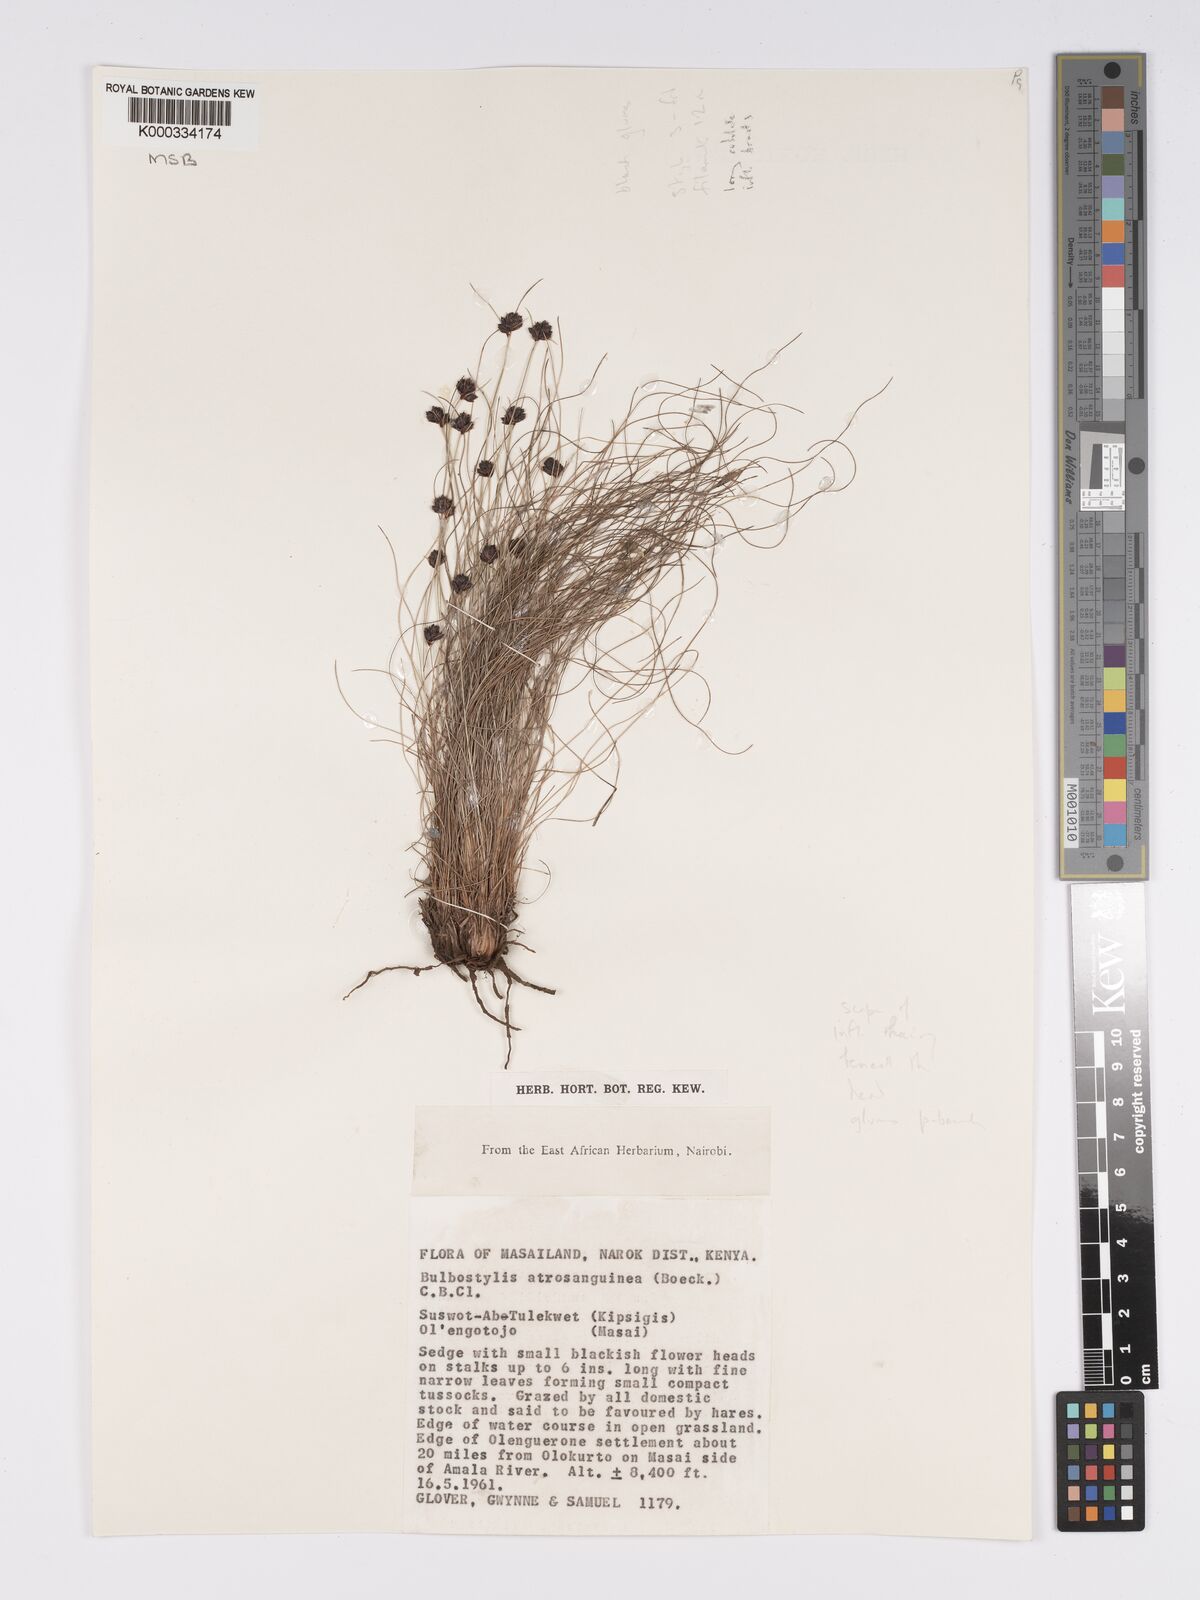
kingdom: Plantae
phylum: Tracheophyta
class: Liliopsida
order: Poales
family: Cyperaceae
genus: Bulbostylis
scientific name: Bulbostylis atrosanguinea
